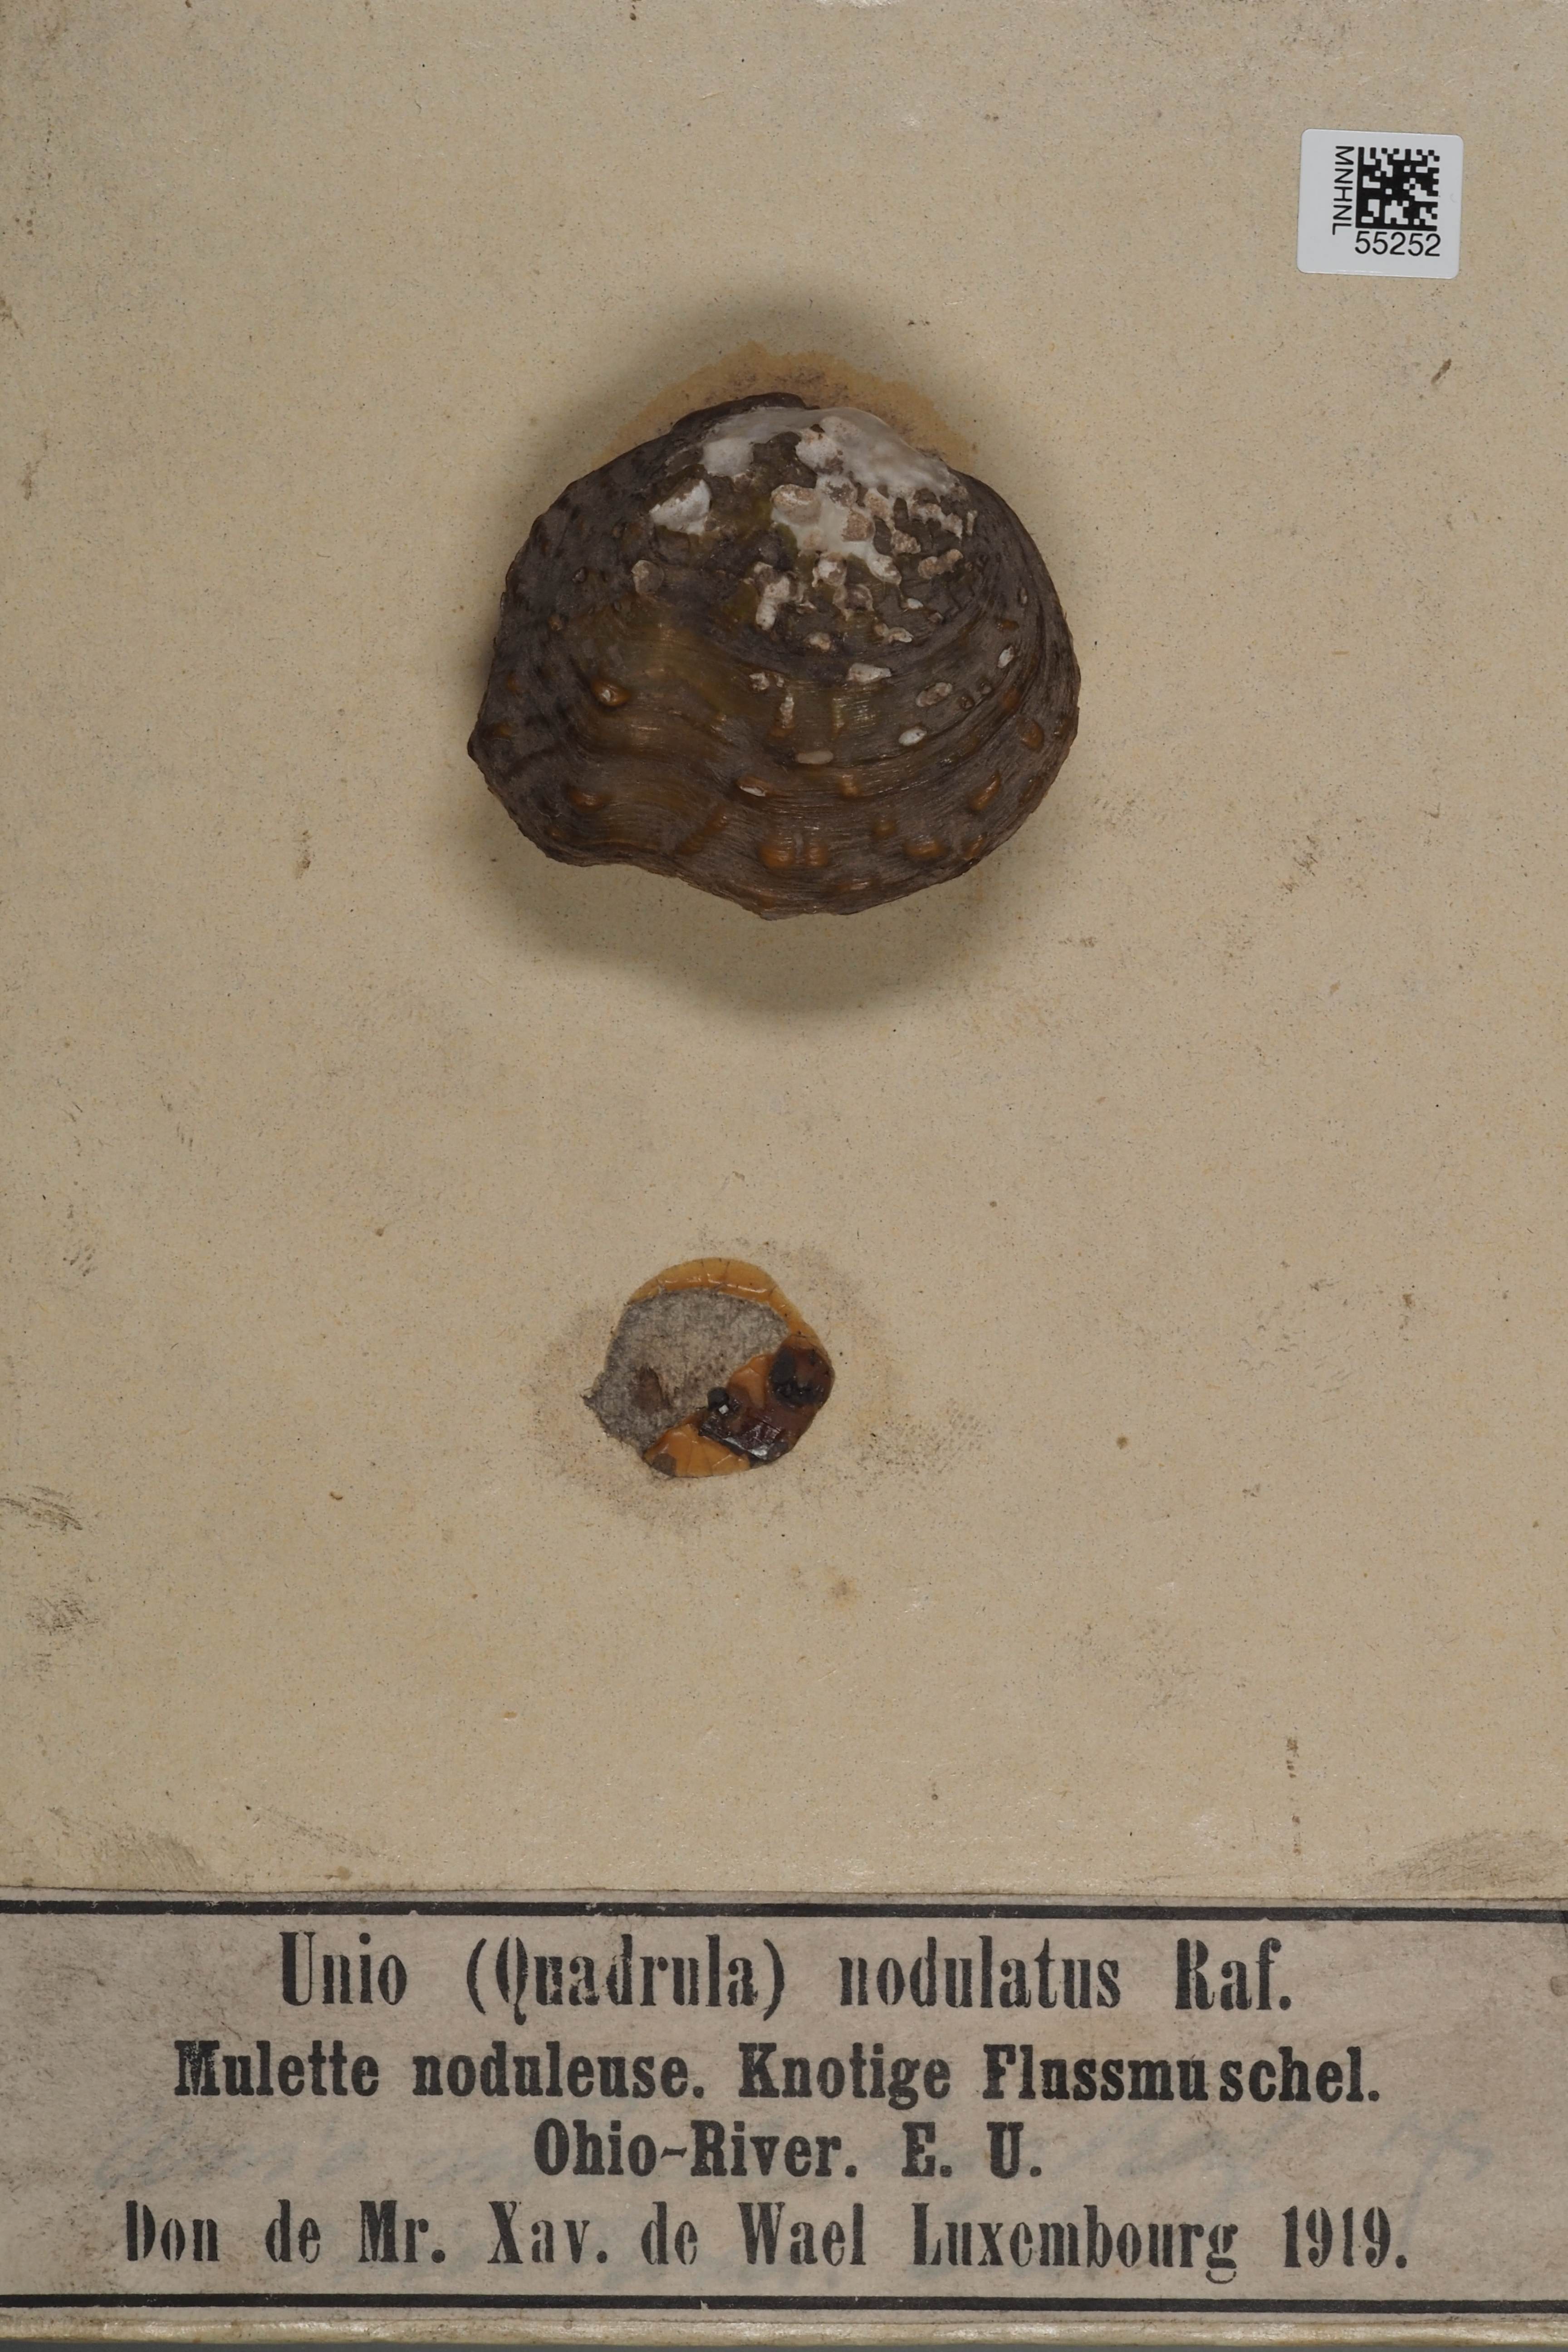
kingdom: Animalia
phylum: Mollusca
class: Bivalvia
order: Unionida
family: Unionidae
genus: Unio
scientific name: Unio pictorum
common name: Painter's mussel
